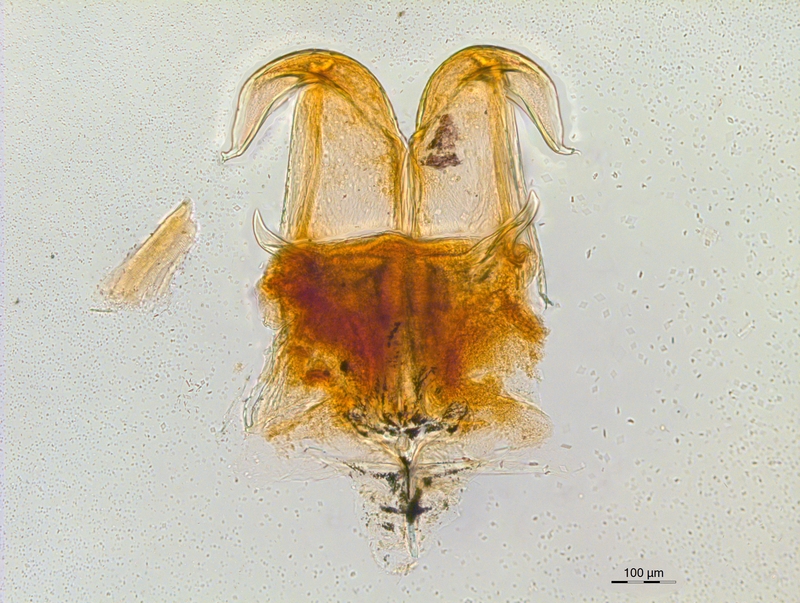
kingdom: Animalia
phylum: Arthropoda
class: Diplopoda
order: Chordeumatida
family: Craspedosomatidae
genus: Atractosoma
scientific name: Atractosoma cecconii
